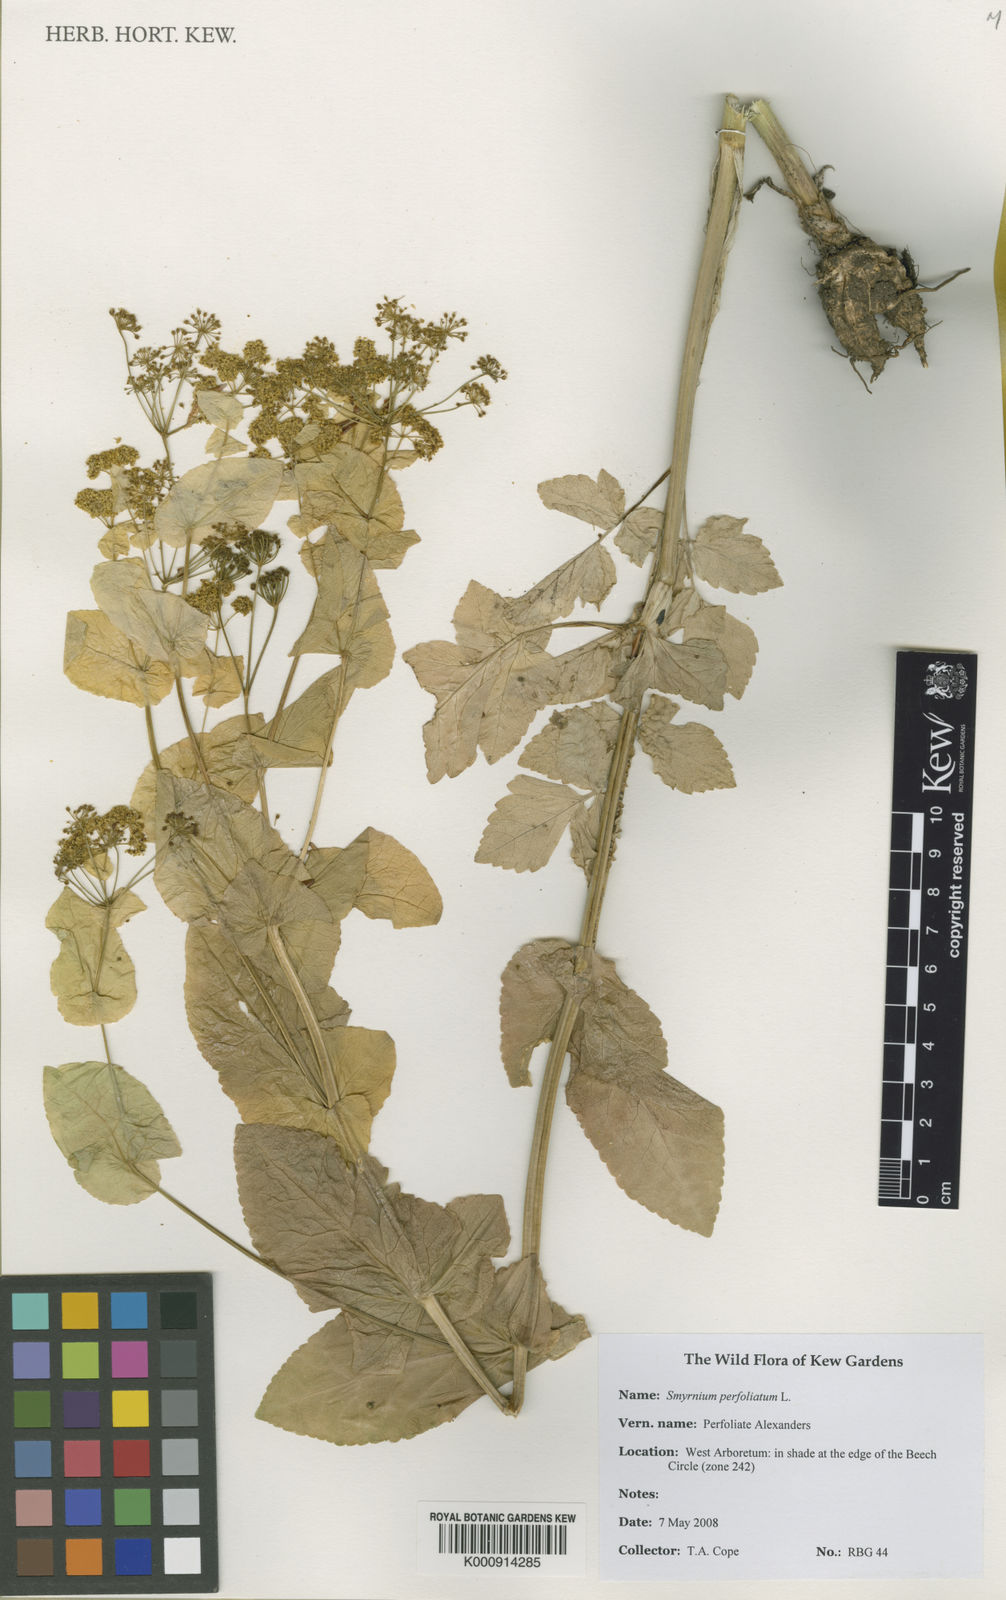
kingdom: Plantae
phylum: Tracheophyta
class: Magnoliopsida
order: Apiales
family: Apiaceae
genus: Smyrnium
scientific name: Smyrnium perfoliatum
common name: Perfoliate alexanders
